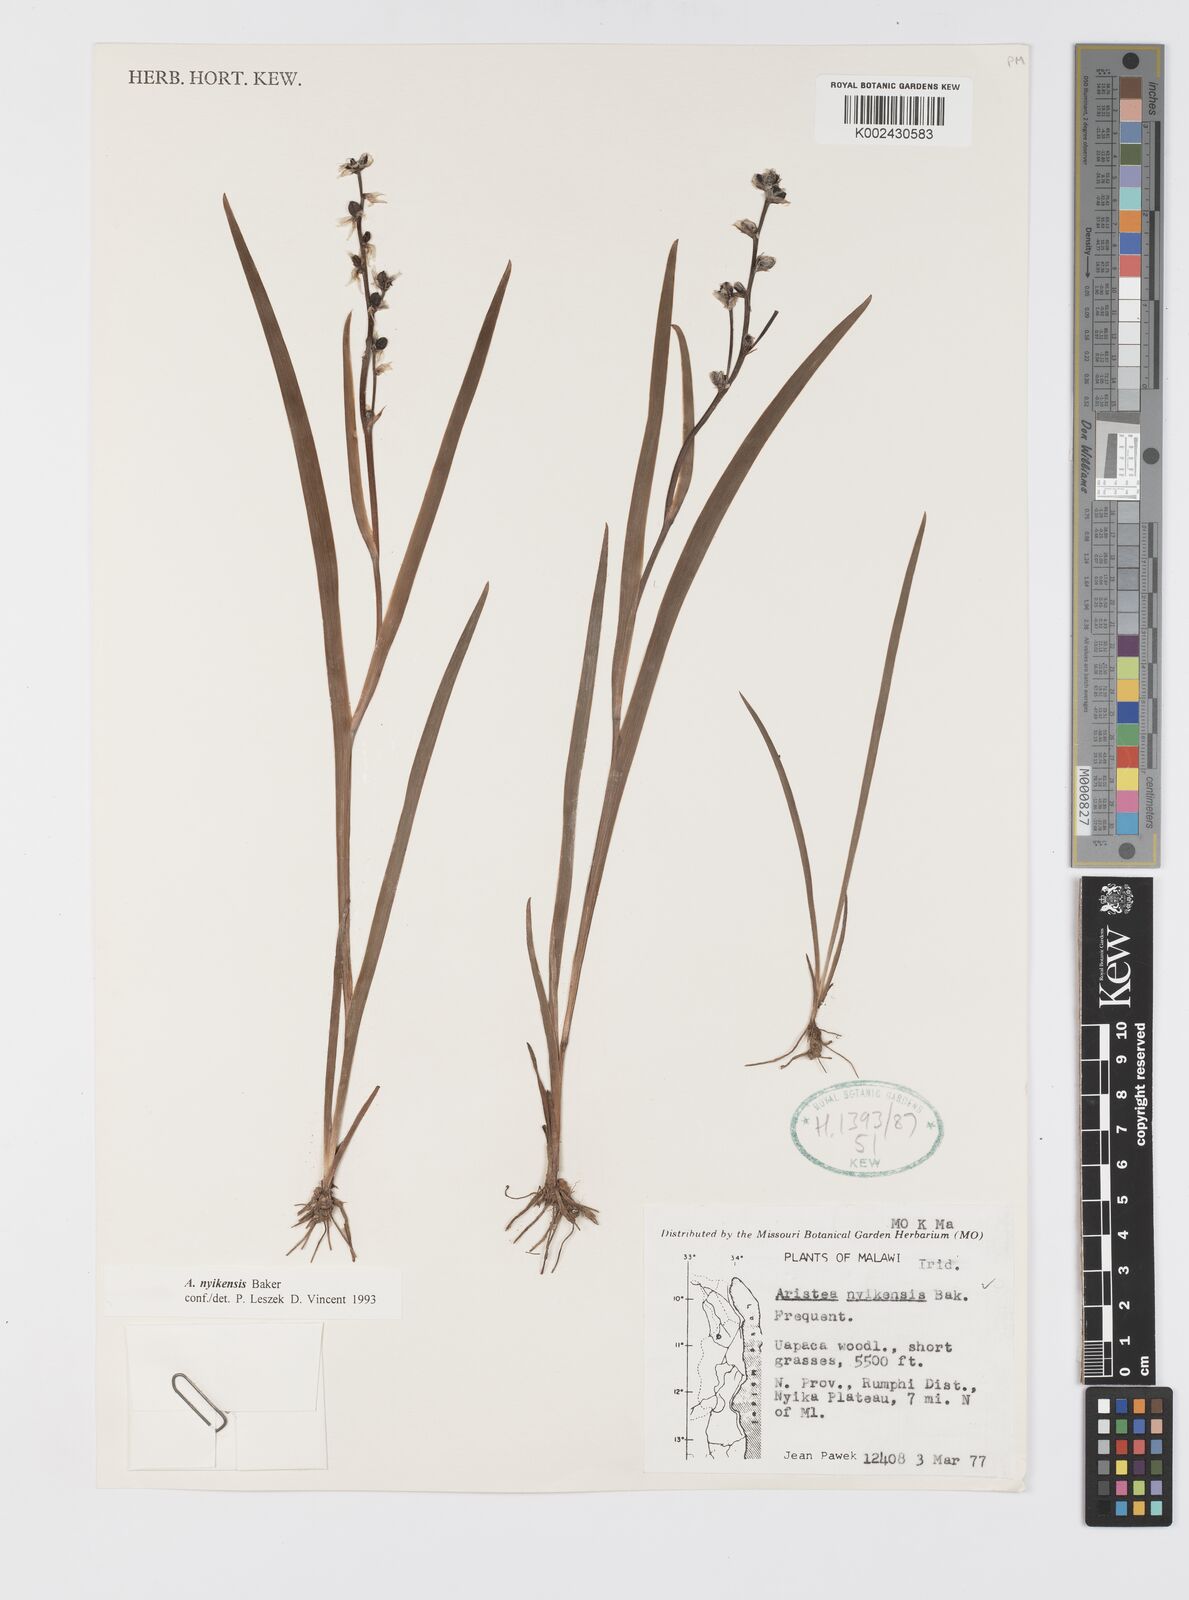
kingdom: Plantae
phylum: Tracheophyta
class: Liliopsida
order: Asparagales
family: Iridaceae
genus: Aristea
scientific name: Aristea nyikensis
